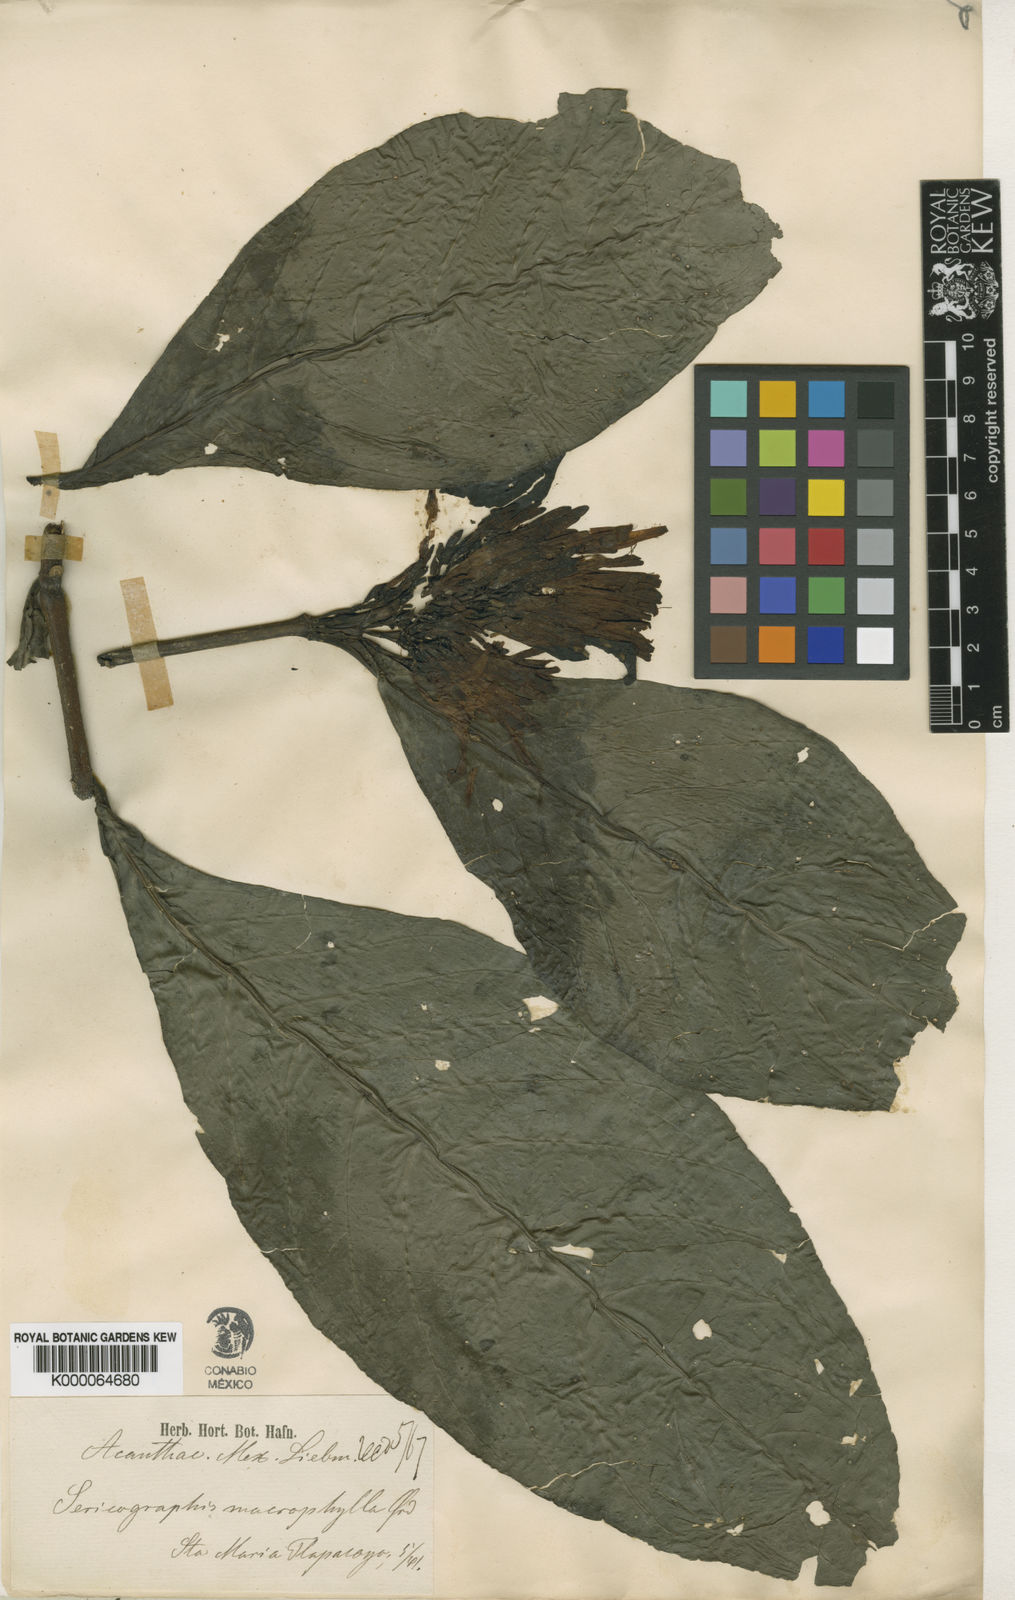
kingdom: Plantae
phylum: Tracheophyta
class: Magnoliopsida
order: Lamiales
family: Acanthaceae
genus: Justicia
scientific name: Justicia spicigera
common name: Mohintli
